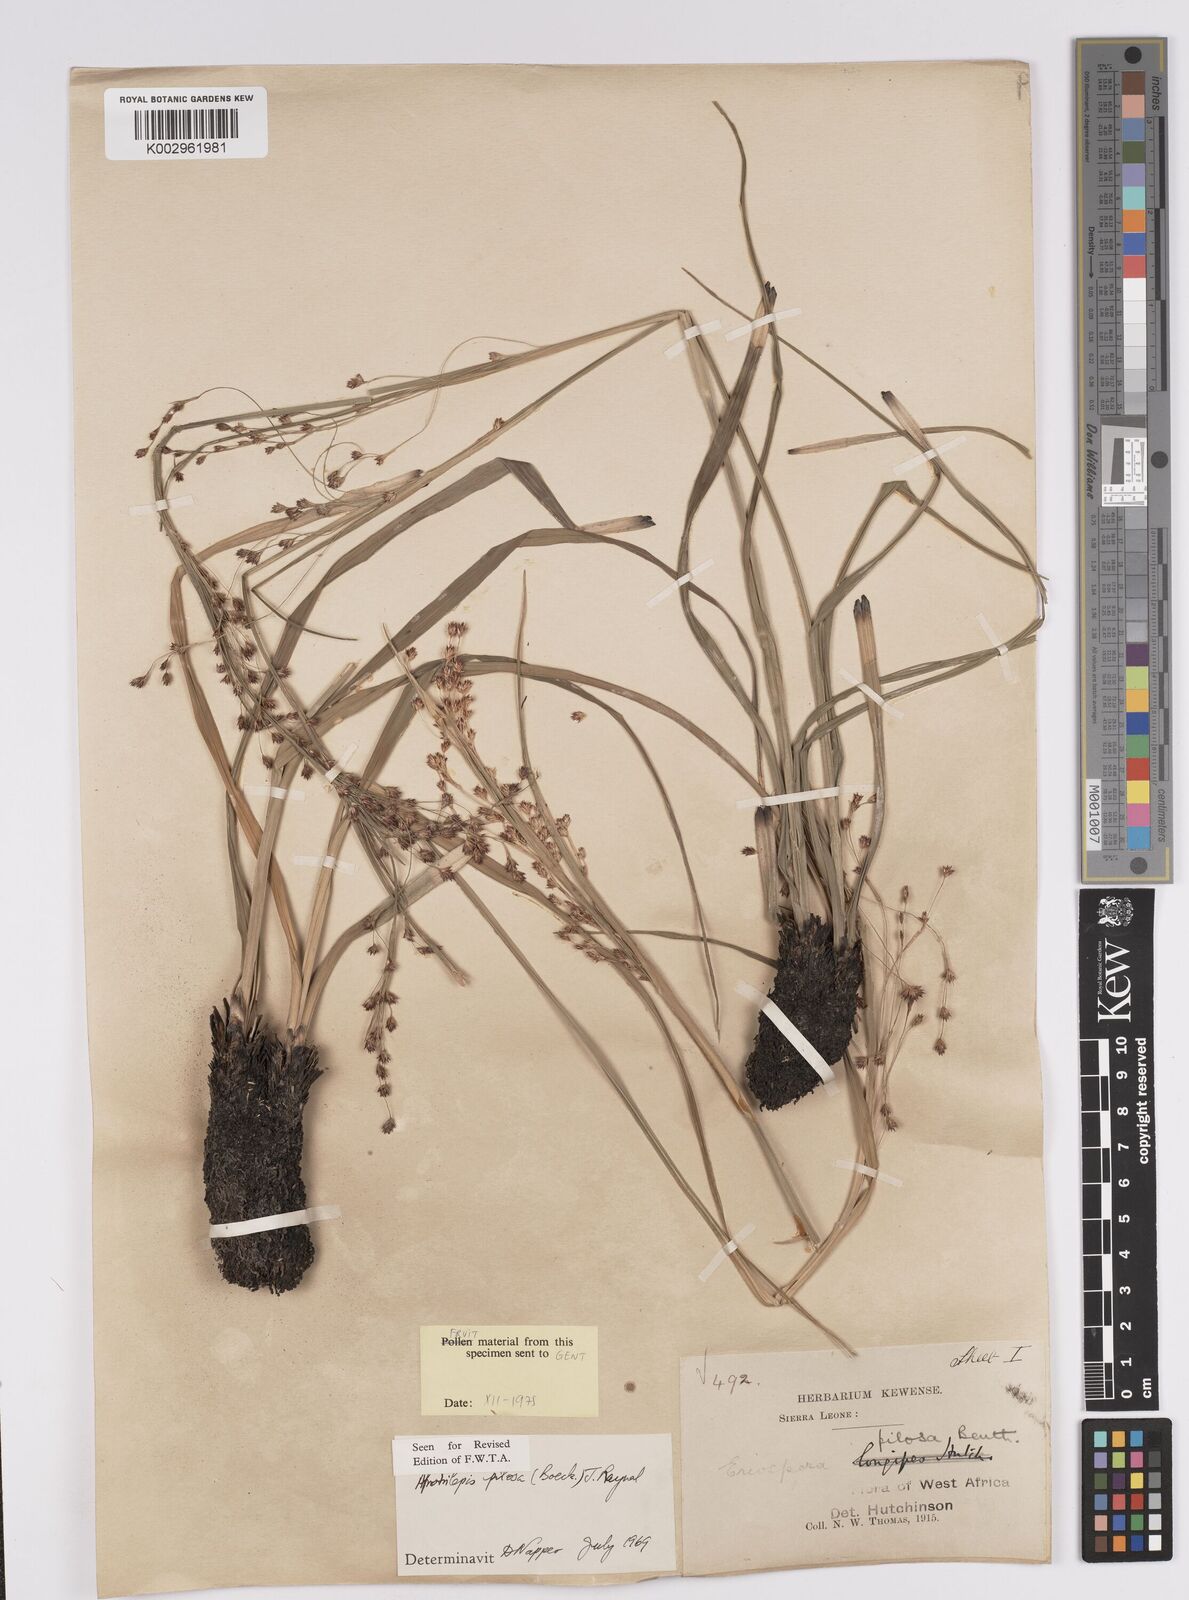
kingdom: Plantae
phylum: Tracheophyta
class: Liliopsida
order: Poales
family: Cyperaceae
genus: Afrotrilepis
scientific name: Afrotrilepis pilosa
